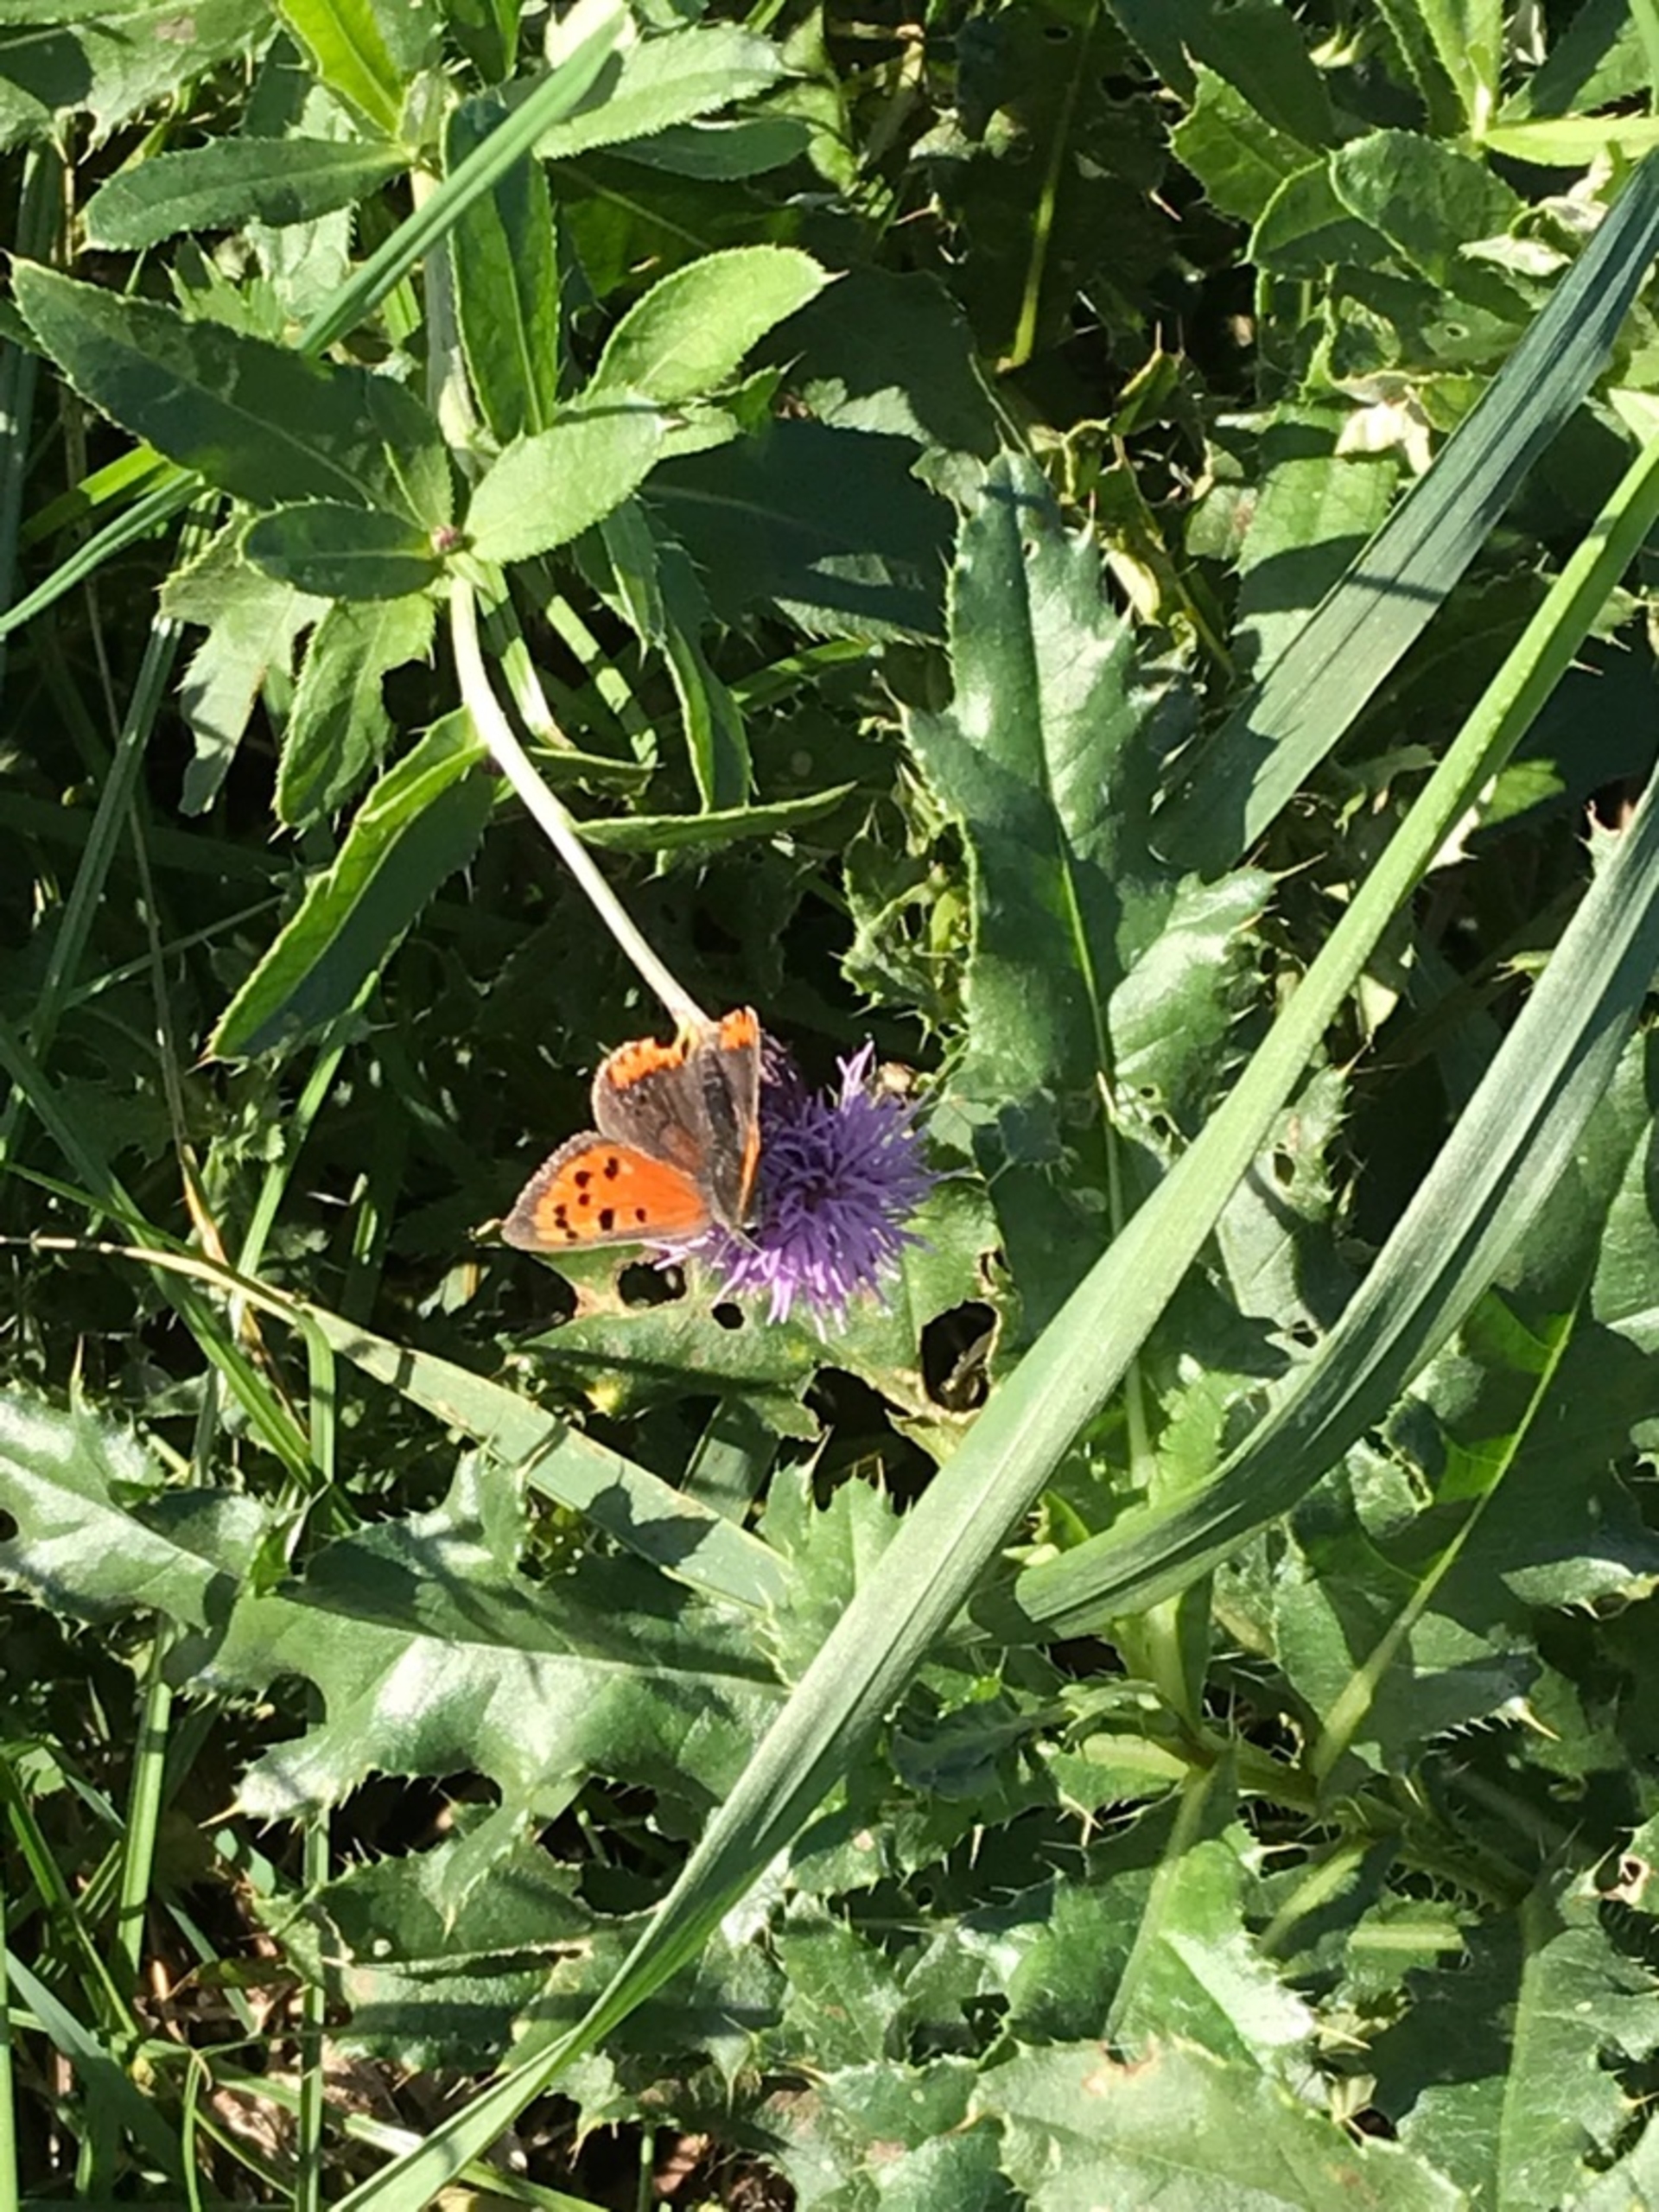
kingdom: Animalia
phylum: Arthropoda
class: Insecta
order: Lepidoptera
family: Lycaenidae
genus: Lycaena
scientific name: Lycaena phlaeas
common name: Lille ildfugl
